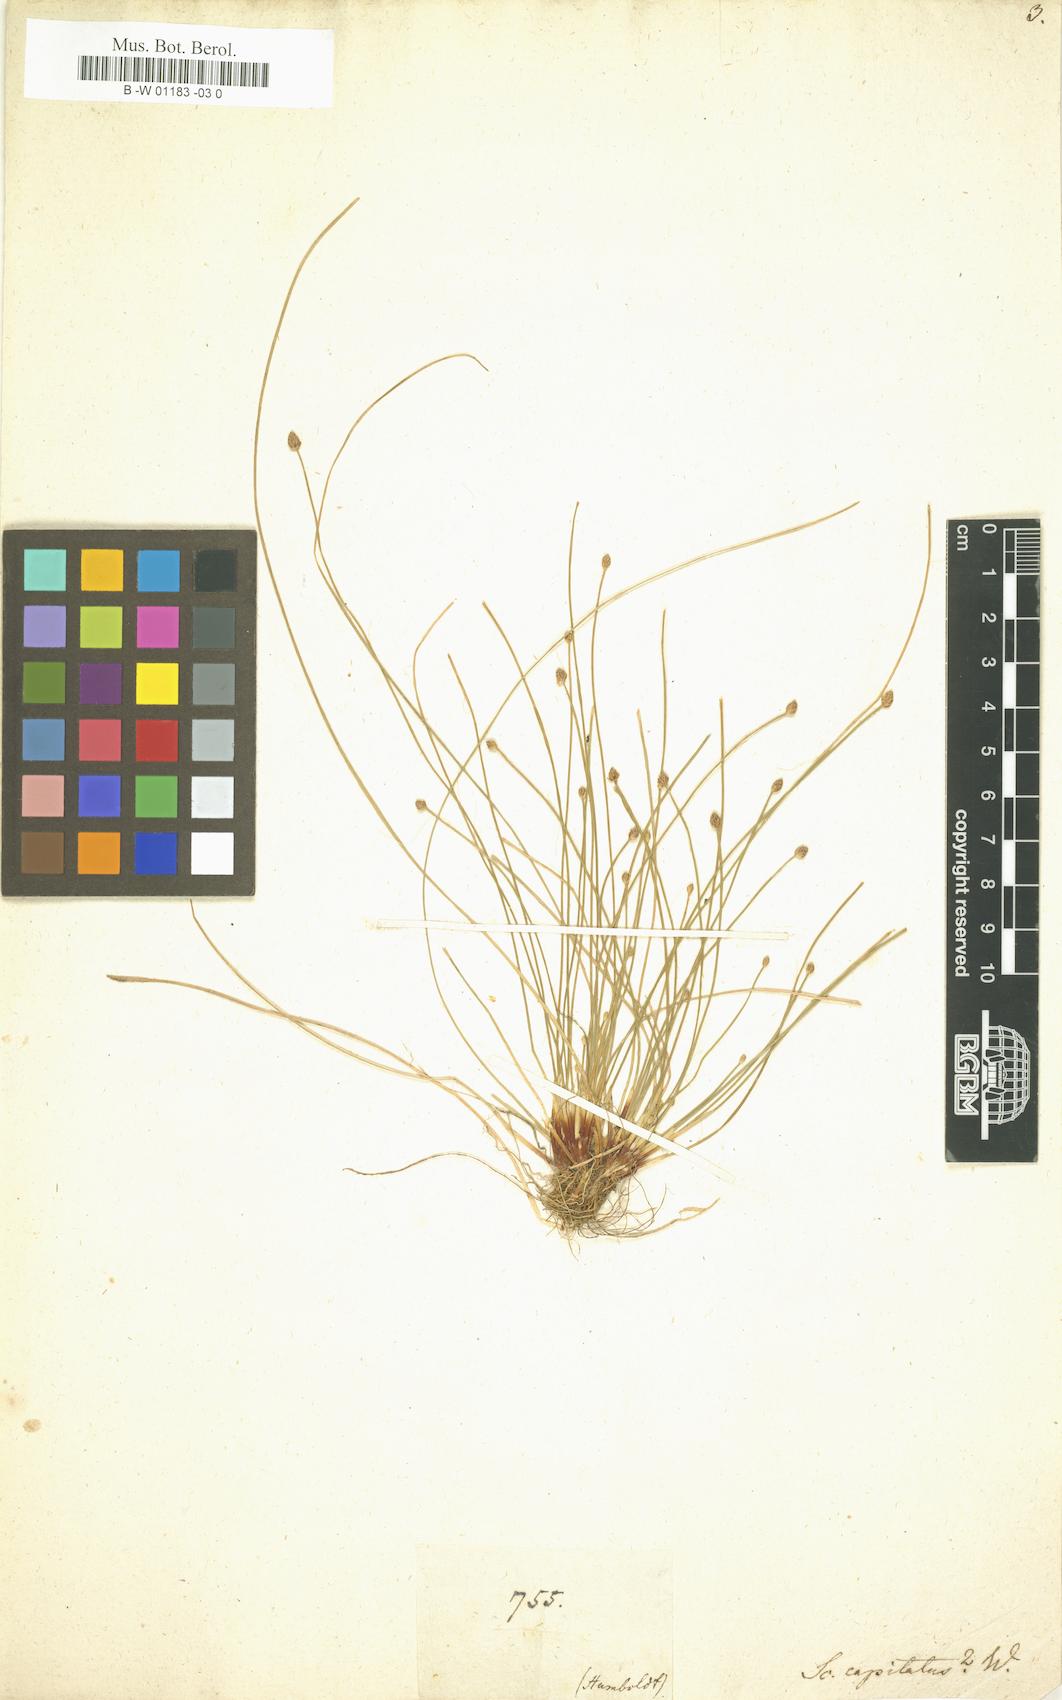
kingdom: Plantae
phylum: Tracheophyta
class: Liliopsida
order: Poales
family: Cyperaceae
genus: Eleocharis
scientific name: Eleocharis geniculata
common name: Canada spikesedge
